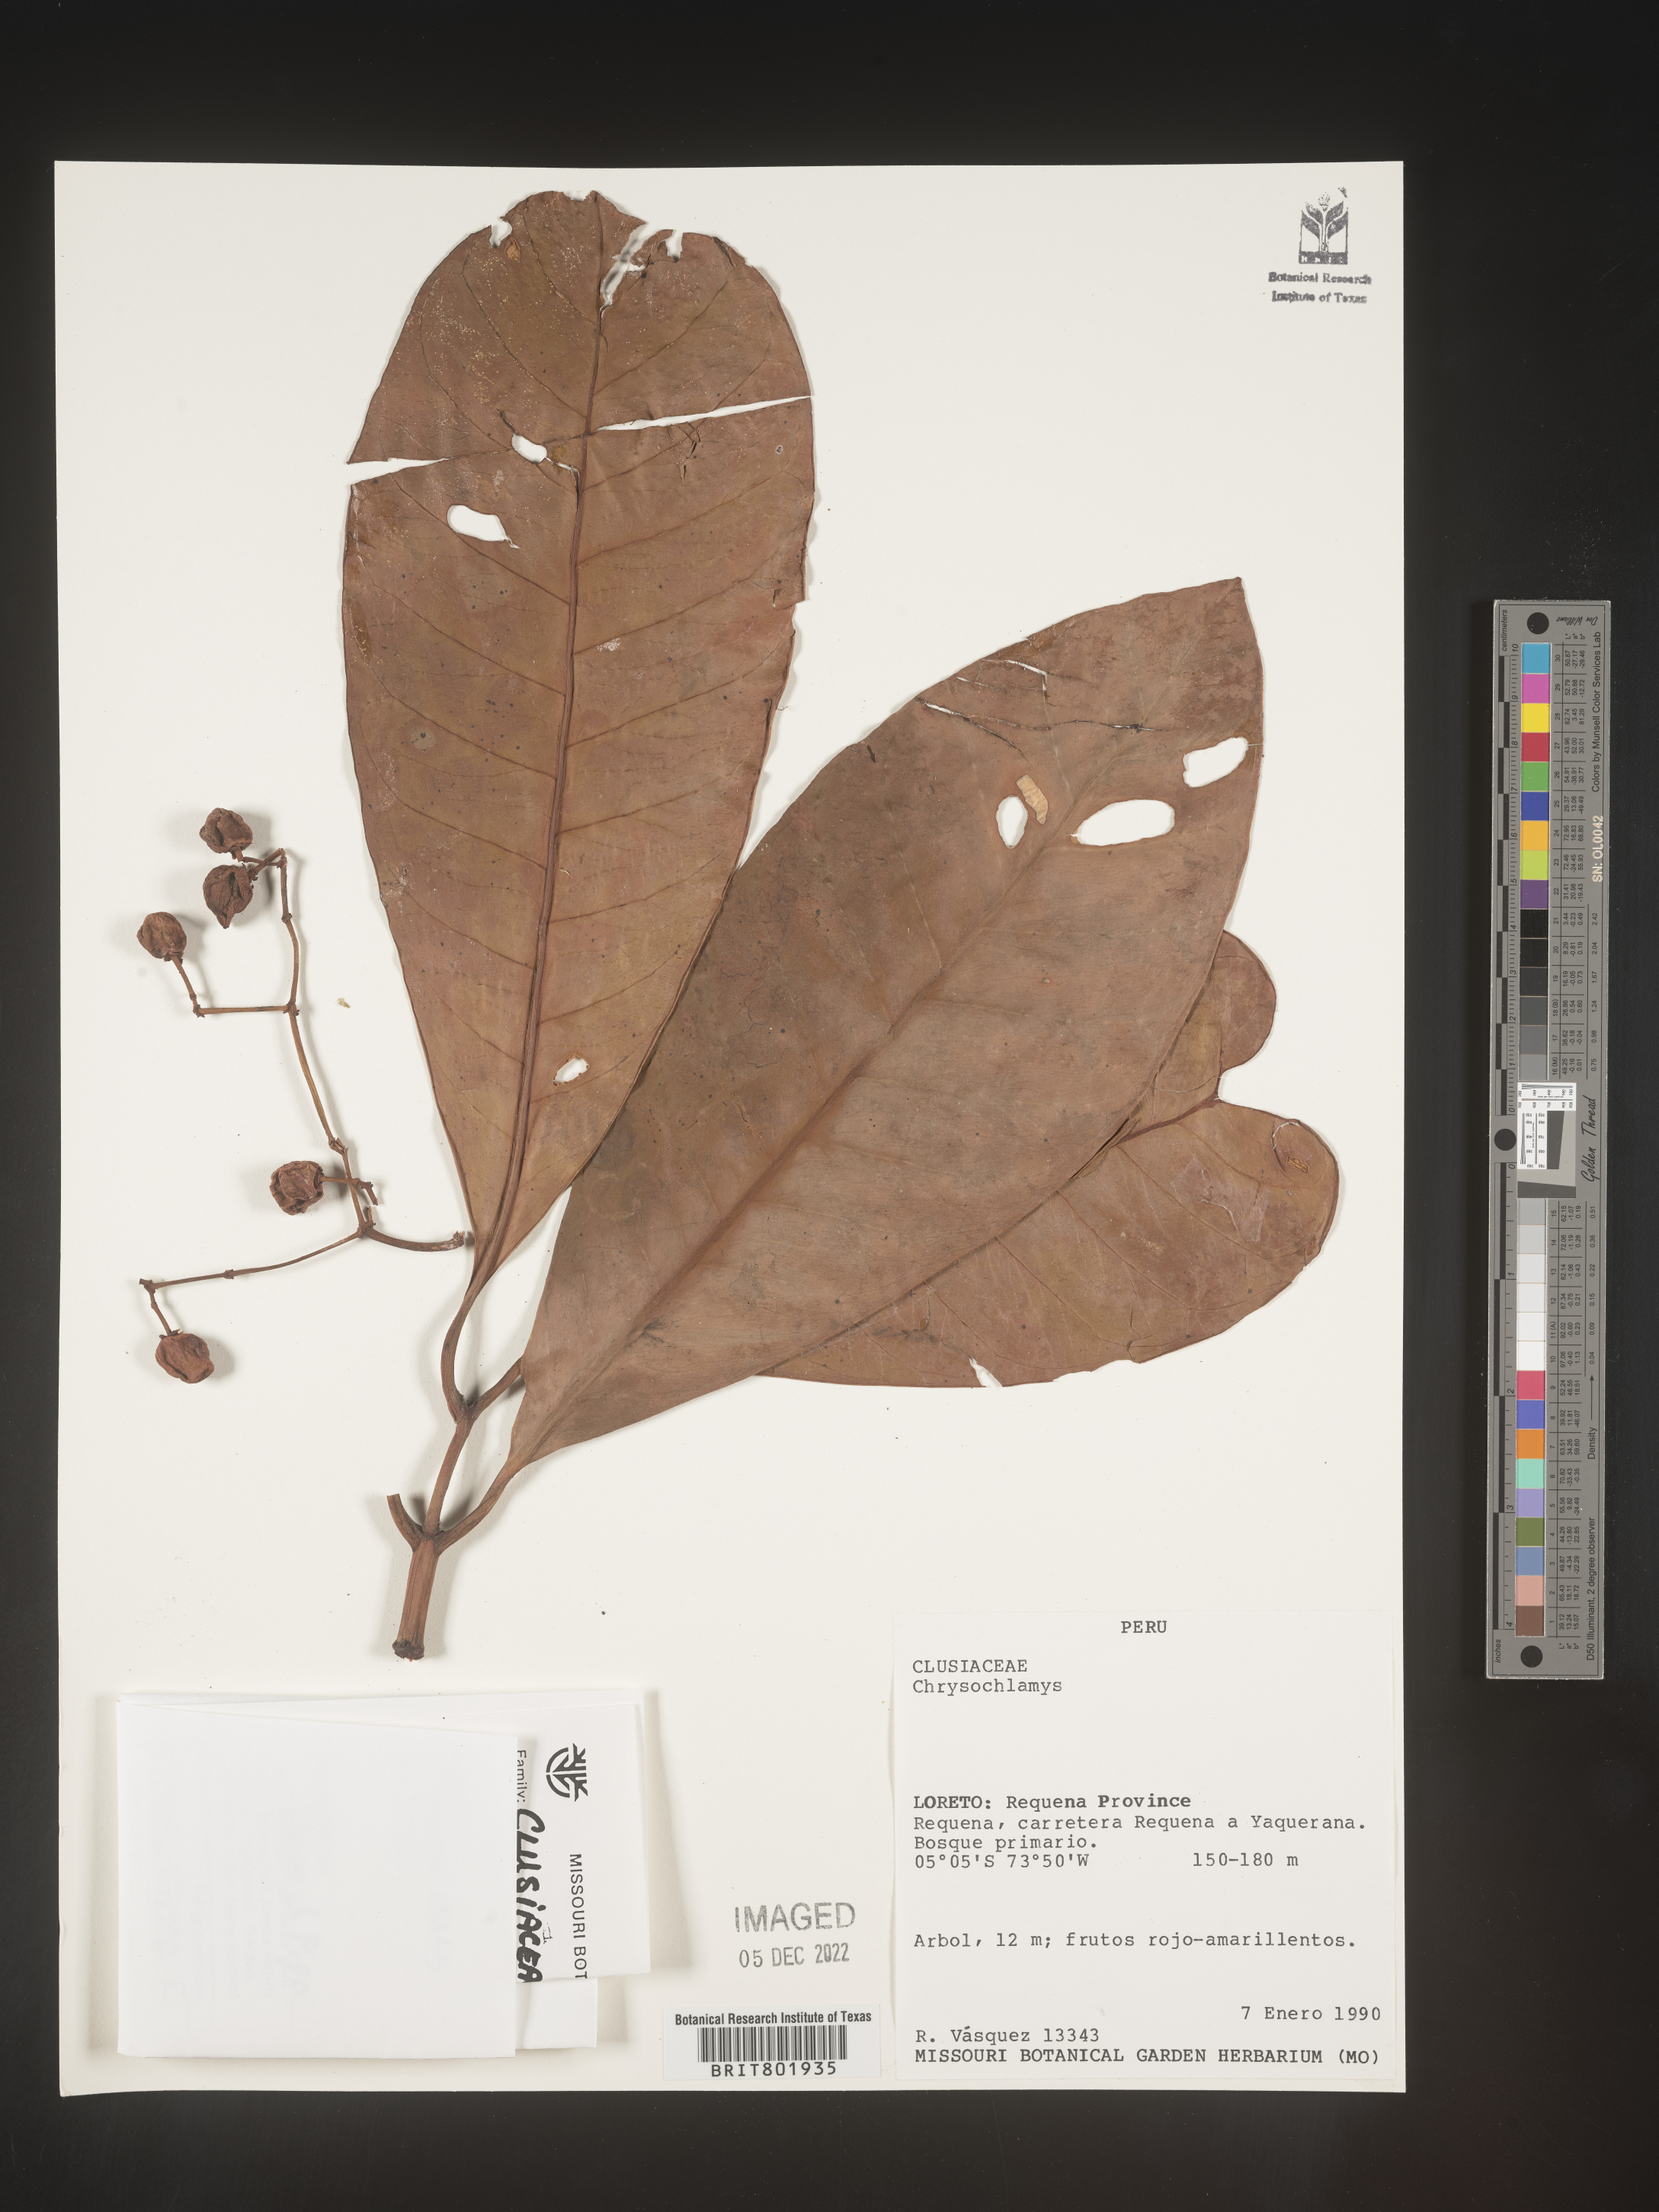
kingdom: Plantae
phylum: Tracheophyta
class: Magnoliopsida
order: Malpighiales
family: Clusiaceae
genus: Chrysochlamys
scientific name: Chrysochlamys
